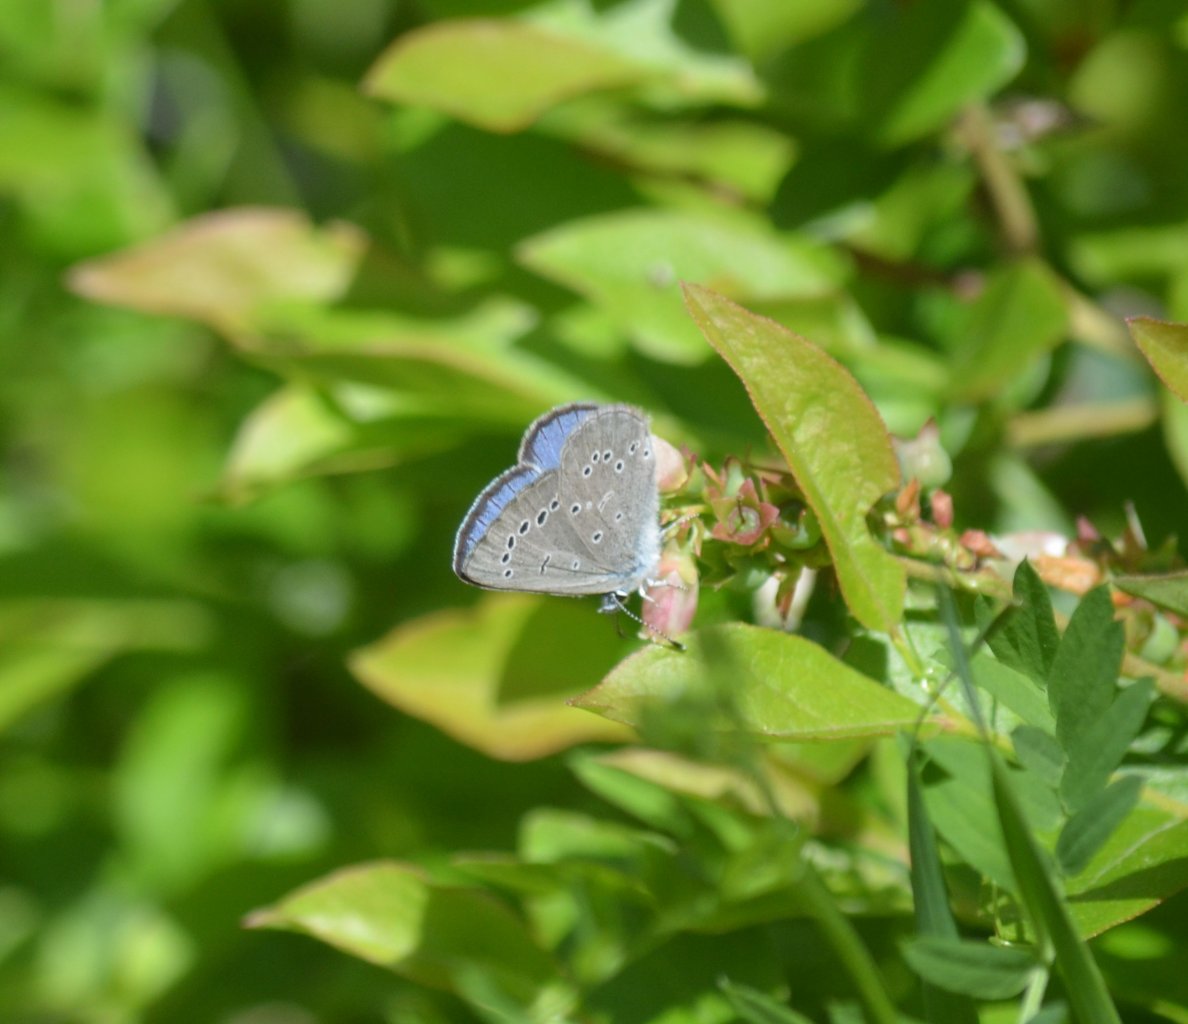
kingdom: Animalia
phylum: Arthropoda
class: Insecta
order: Lepidoptera
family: Lycaenidae
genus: Glaucopsyche
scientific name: Glaucopsyche lygdamus
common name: Silvery Blue
